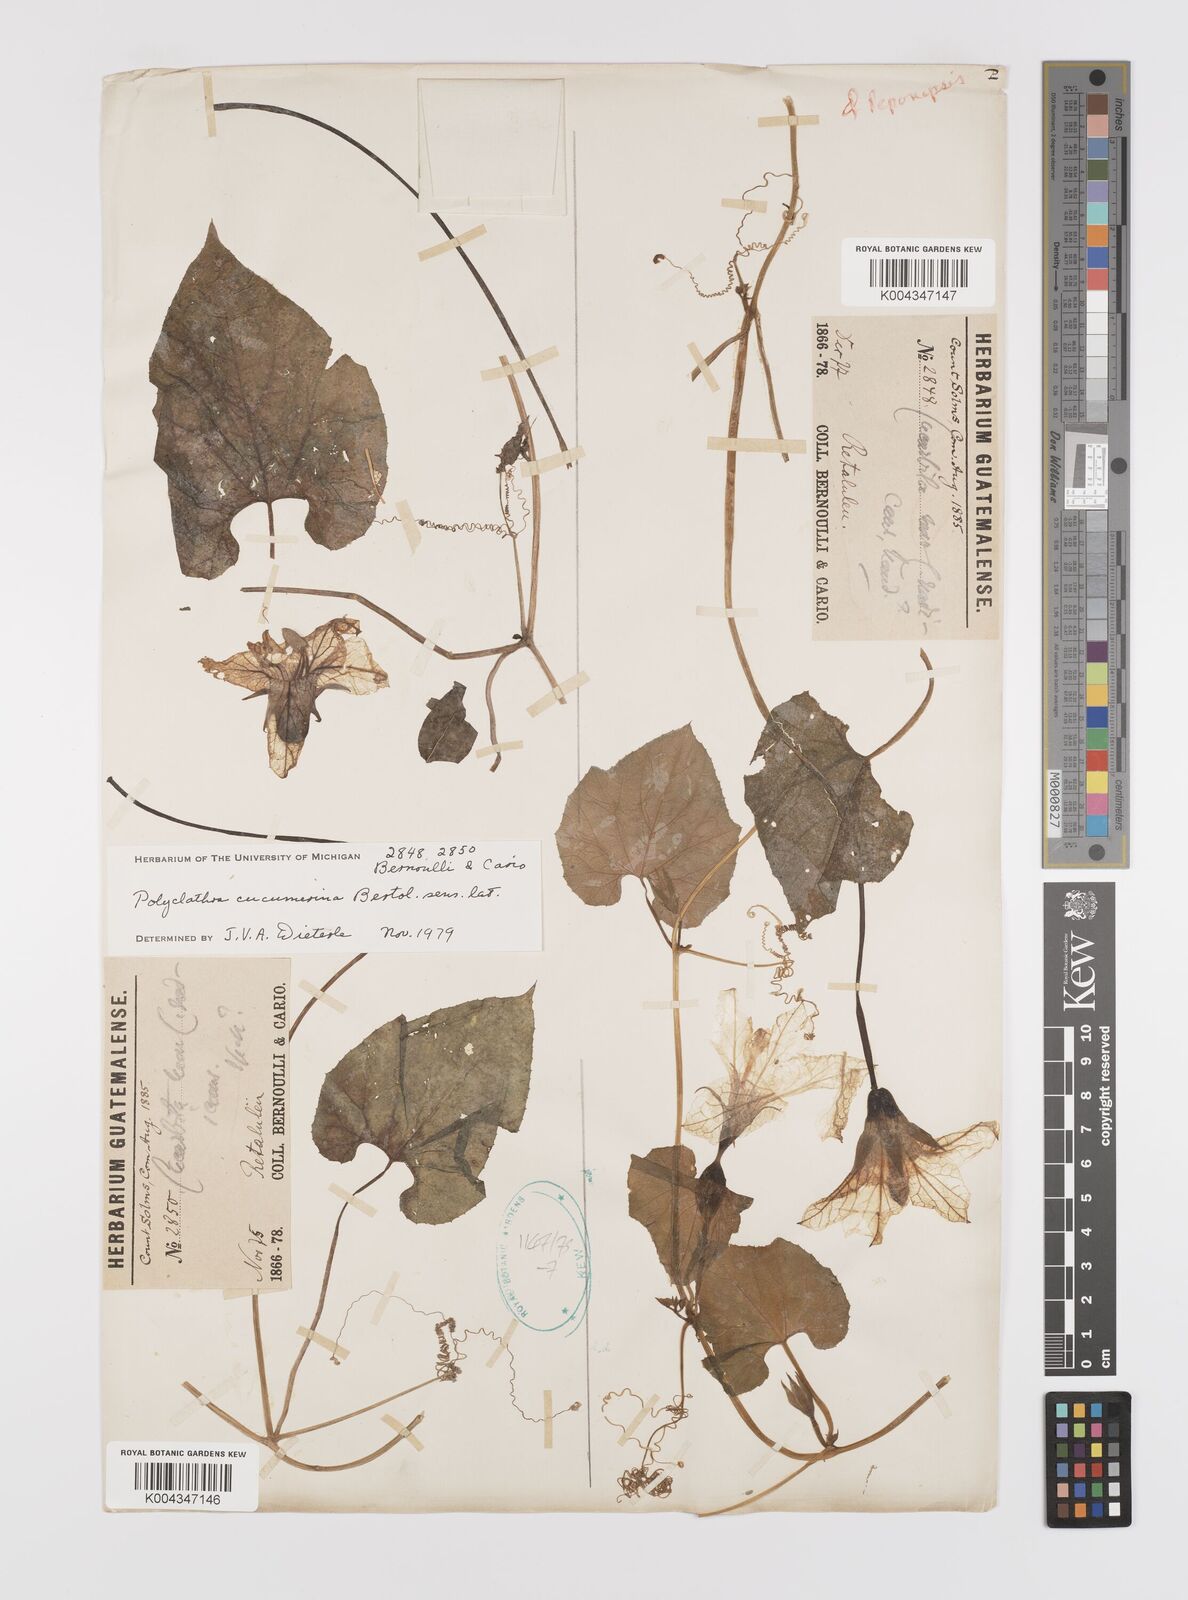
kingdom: Plantae
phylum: Tracheophyta
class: Magnoliopsida
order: Cucurbitales
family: Cucurbitaceae
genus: Polyclathra
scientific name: Polyclathra cucumerina
